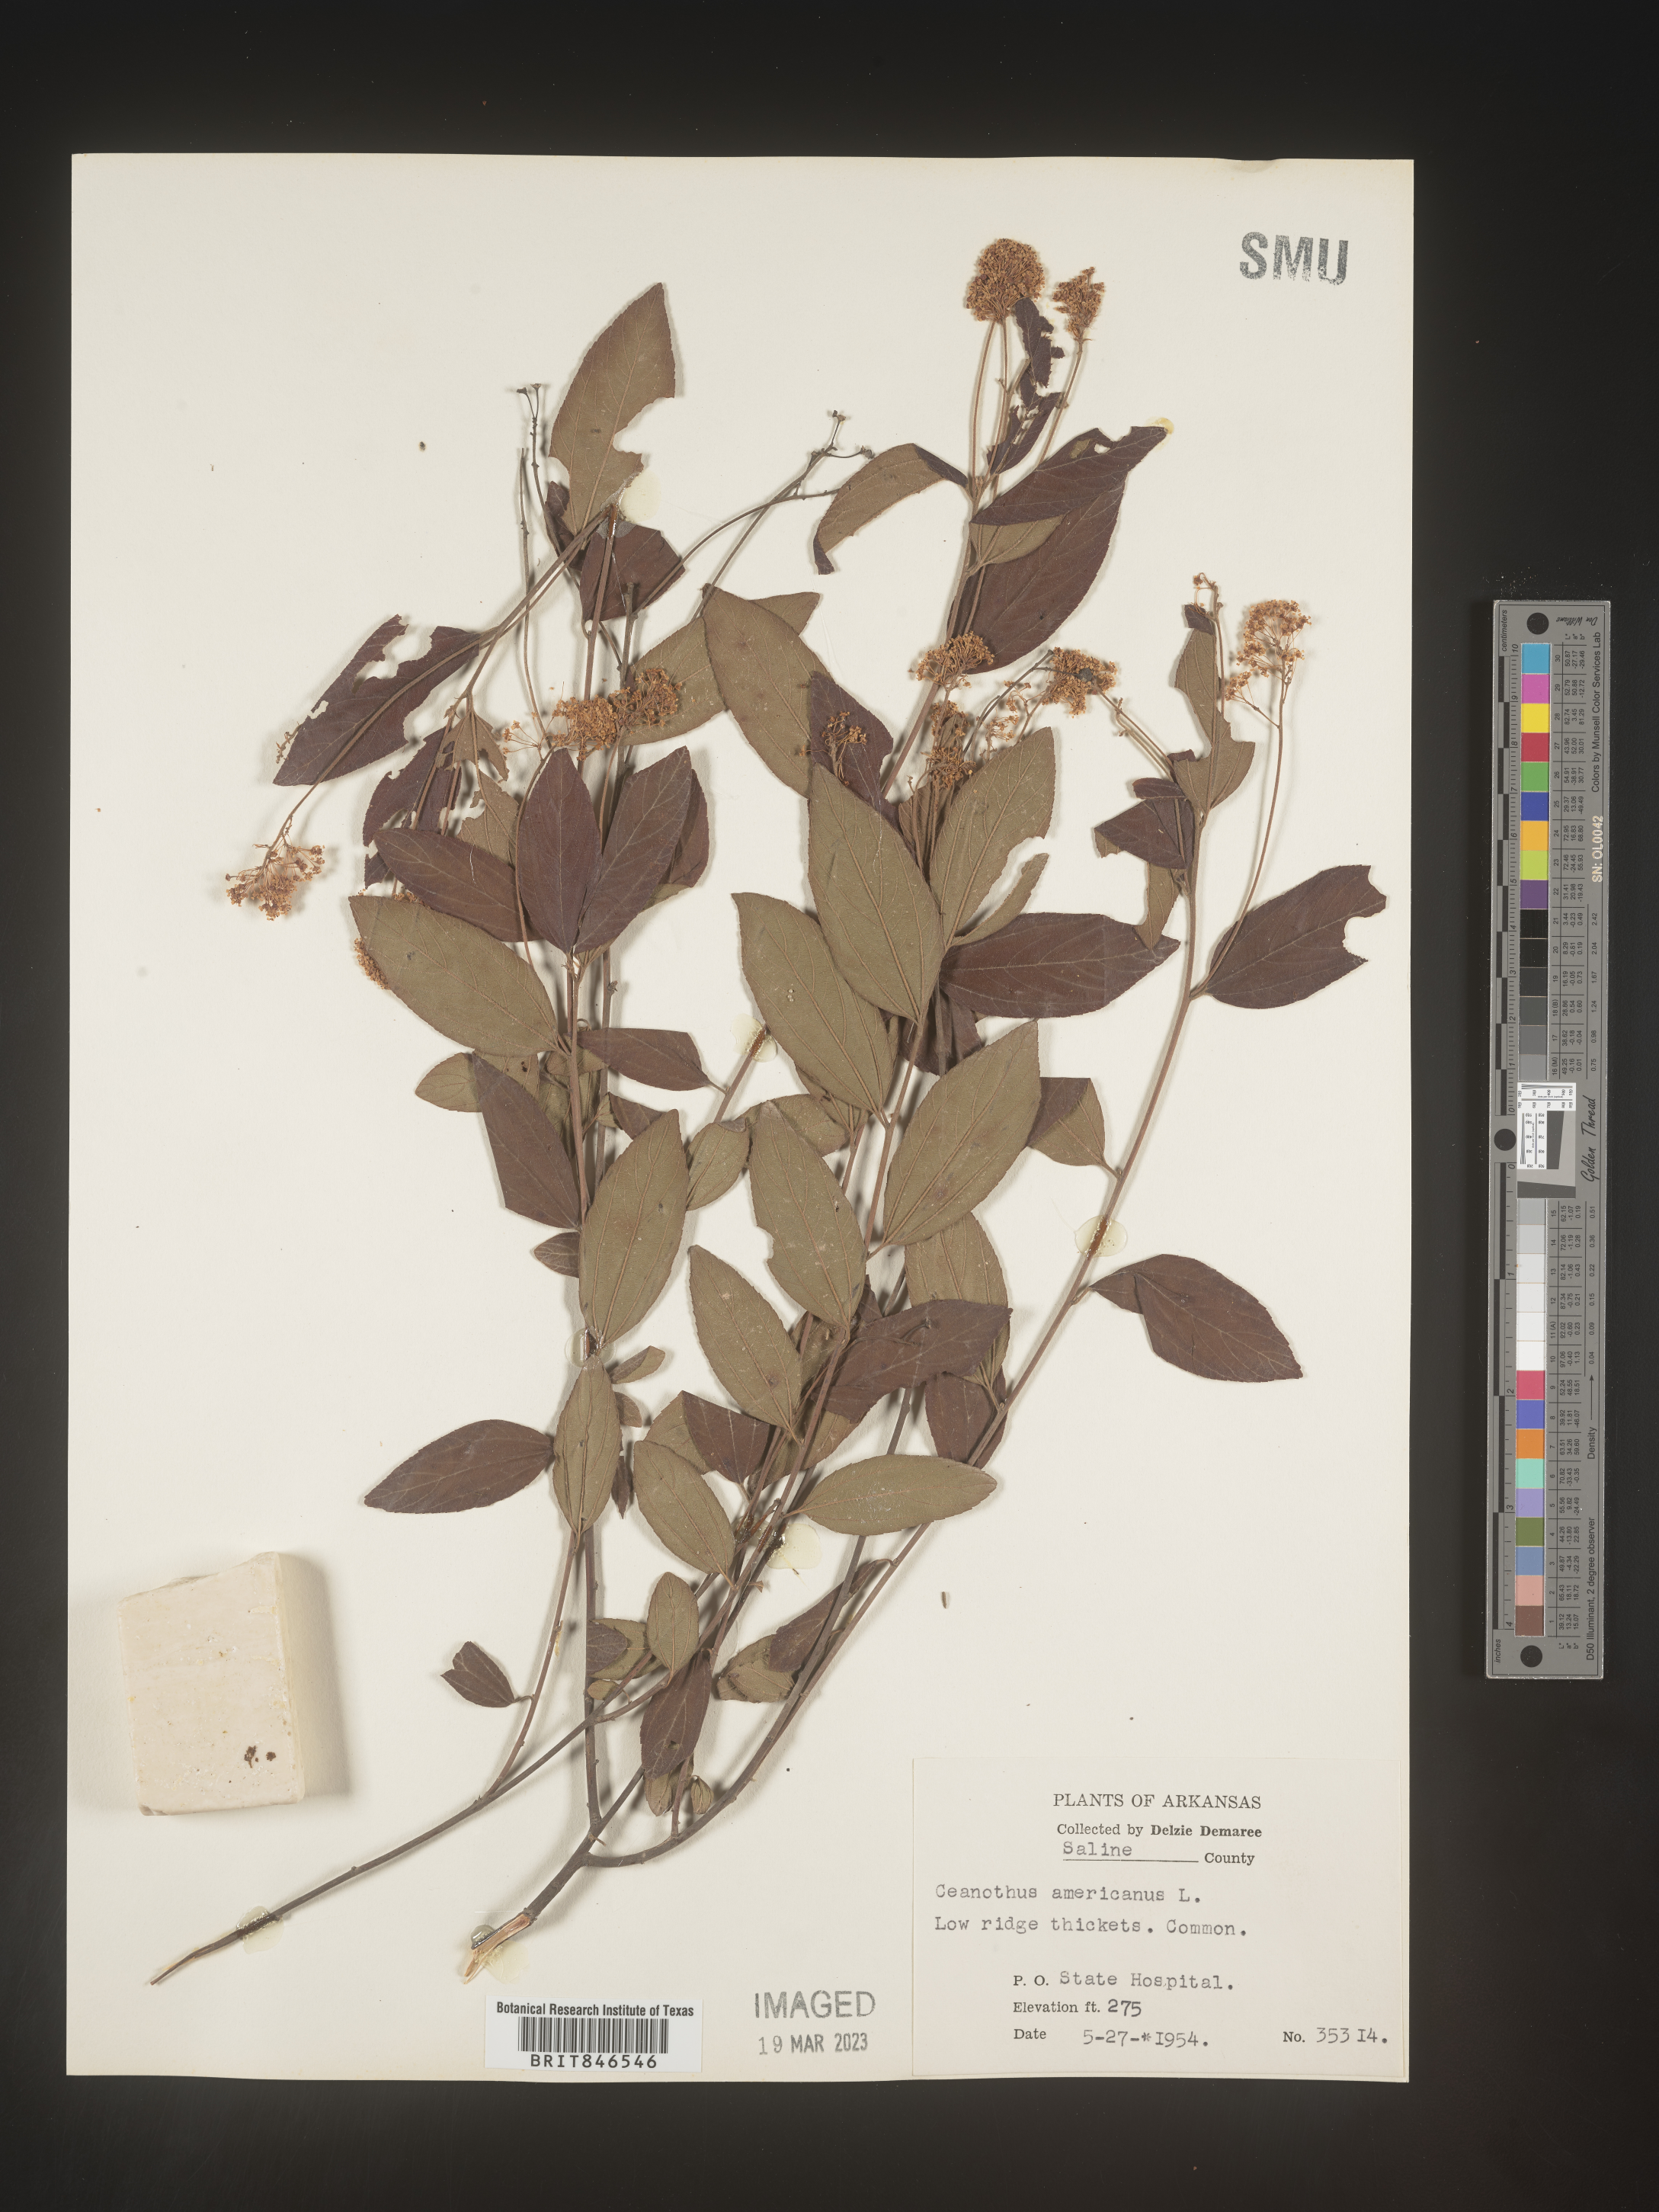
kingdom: Plantae
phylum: Tracheophyta
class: Magnoliopsida
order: Rosales
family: Rhamnaceae
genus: Ceanothus
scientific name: Ceanothus americanus
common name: Redroot
